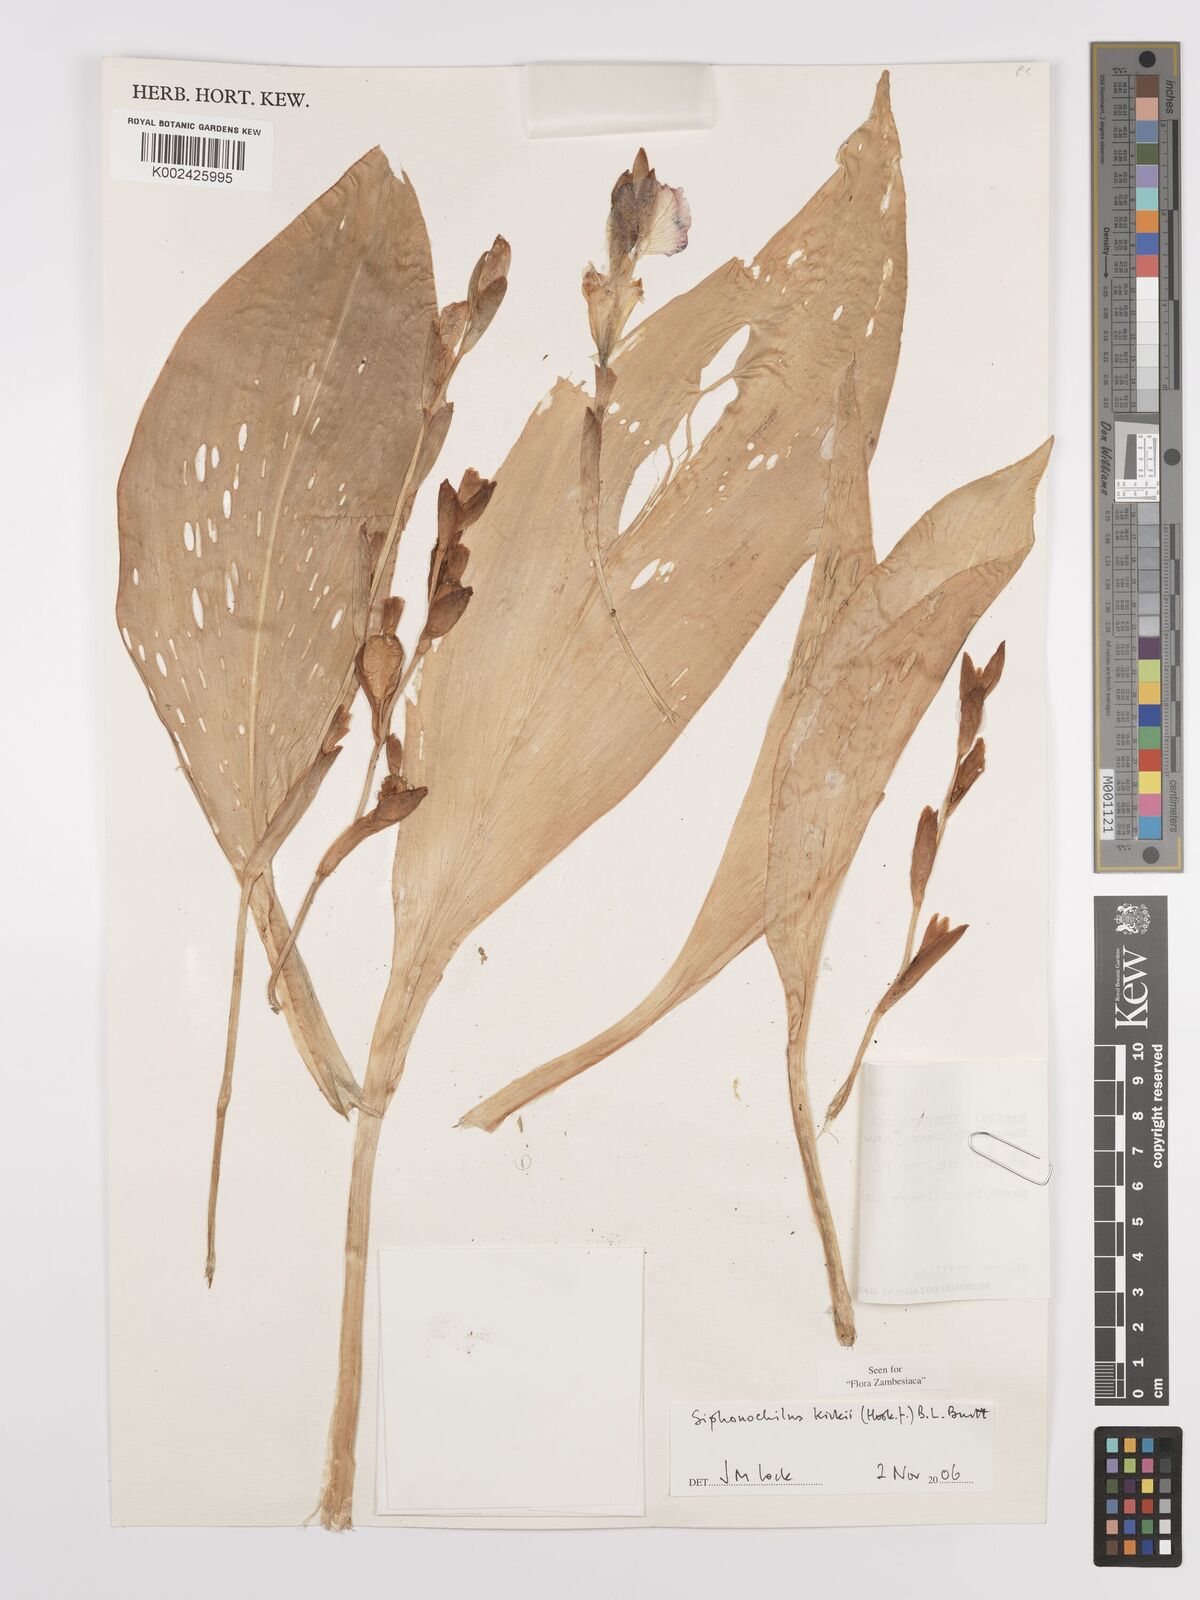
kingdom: Plantae
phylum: Tracheophyta
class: Liliopsida
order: Zingiberales
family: Zingiberaceae
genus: Siphonochilus
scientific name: Siphonochilus kirkii
